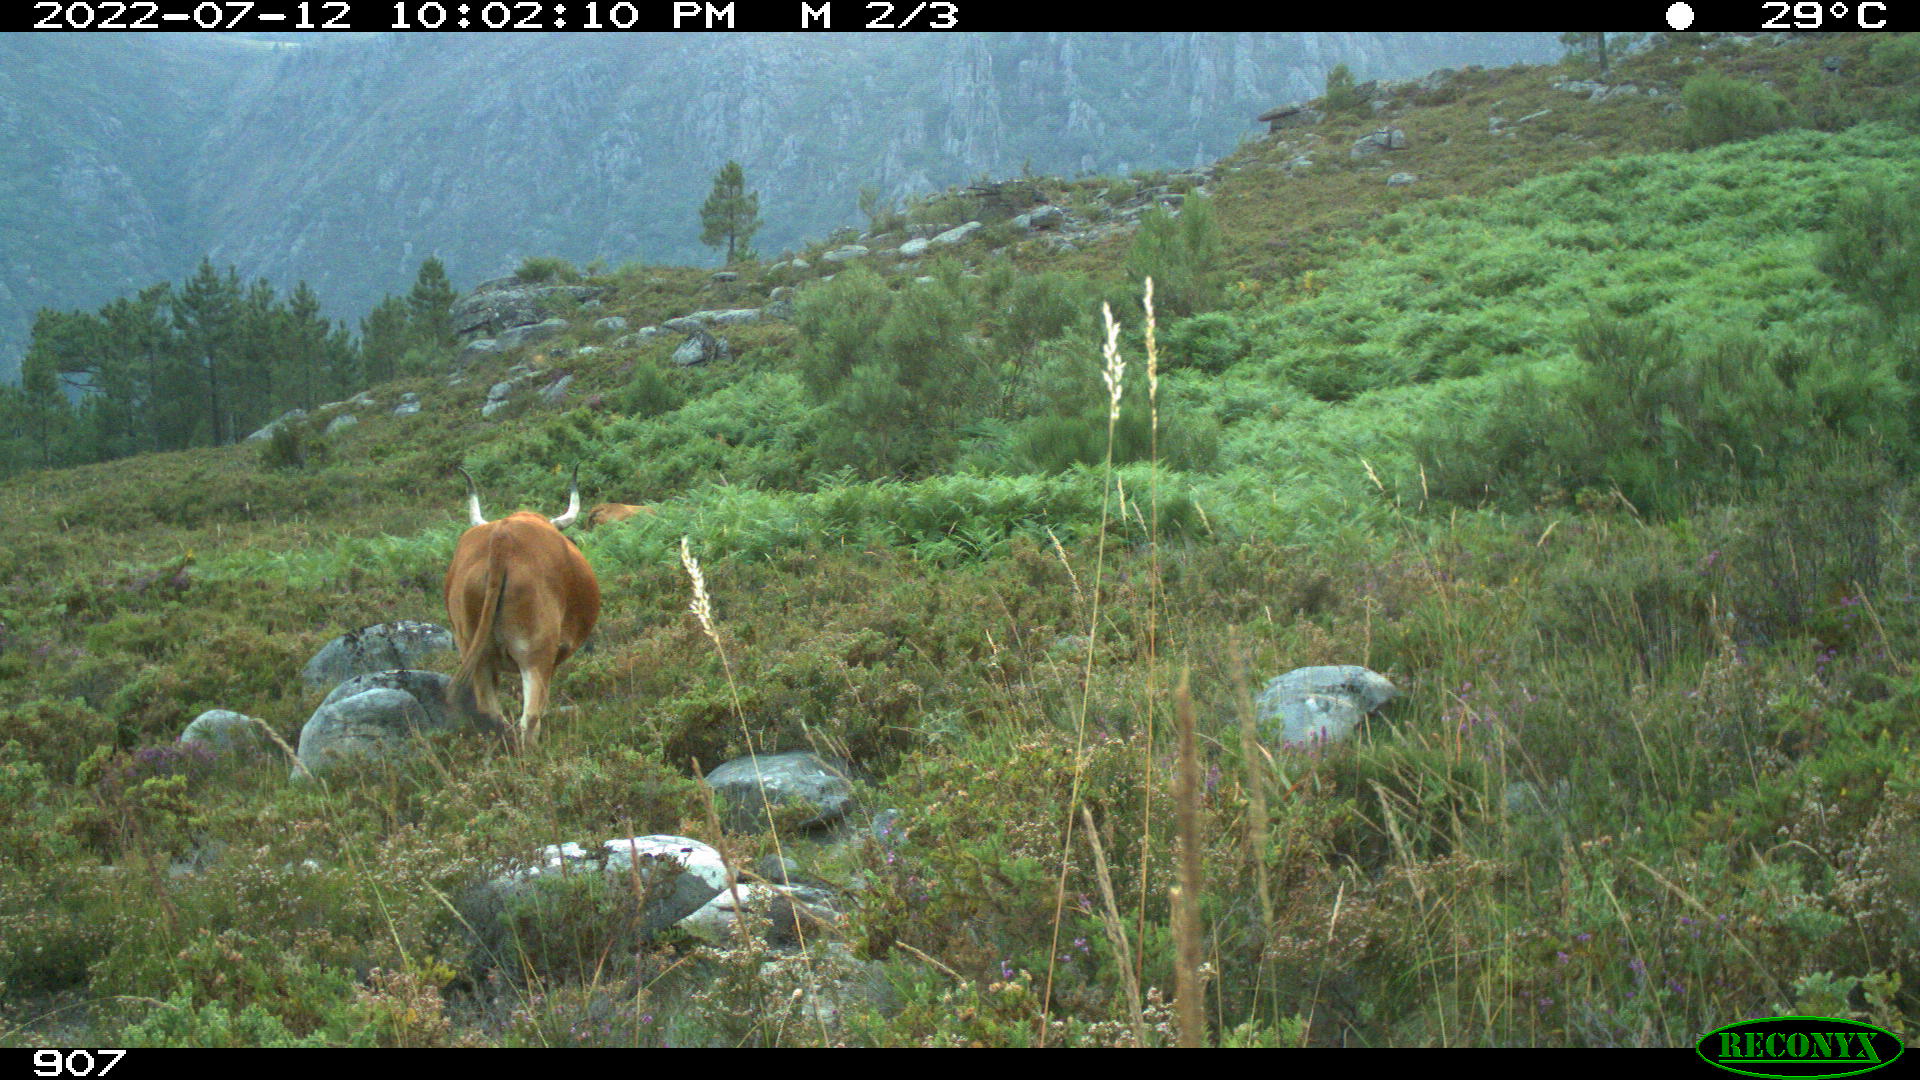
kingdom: Animalia
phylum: Chordata
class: Mammalia
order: Artiodactyla
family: Bovidae
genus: Bos
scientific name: Bos taurus
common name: Domesticated cattle
